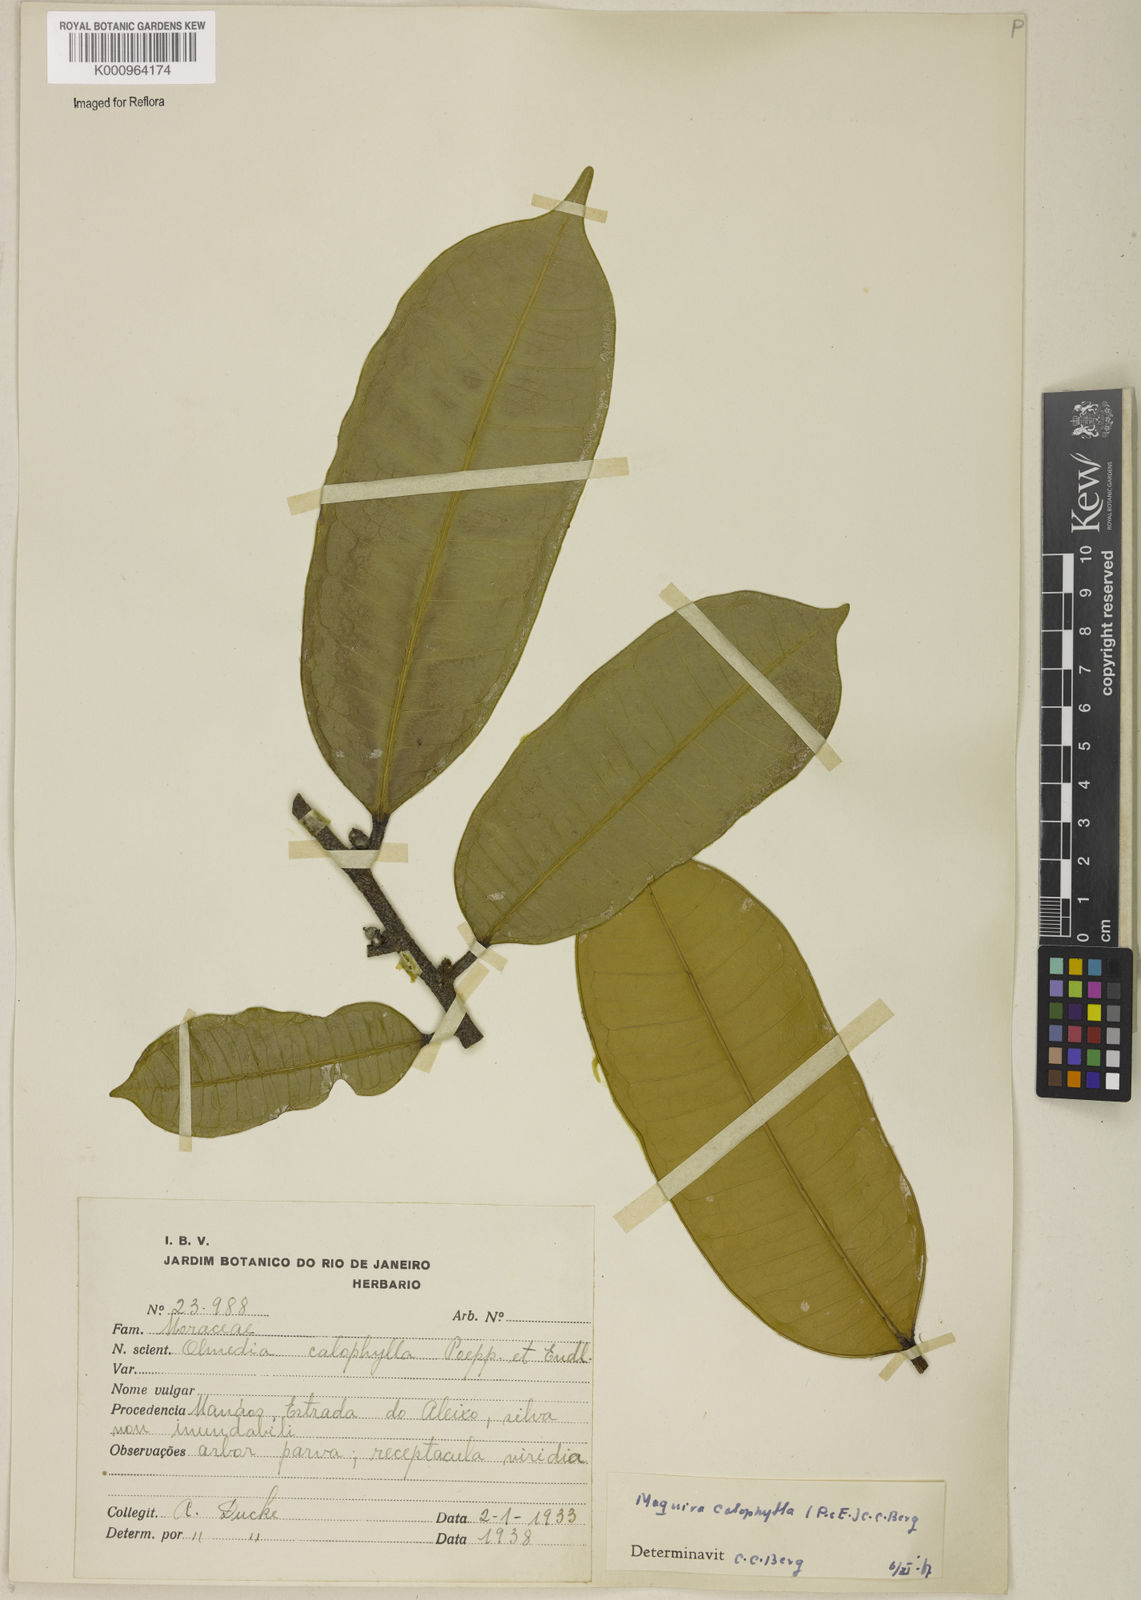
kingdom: Plantae
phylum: Tracheophyta
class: Magnoliopsida
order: Rosales
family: Moraceae
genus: Maquira
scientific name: Maquira calophylla
